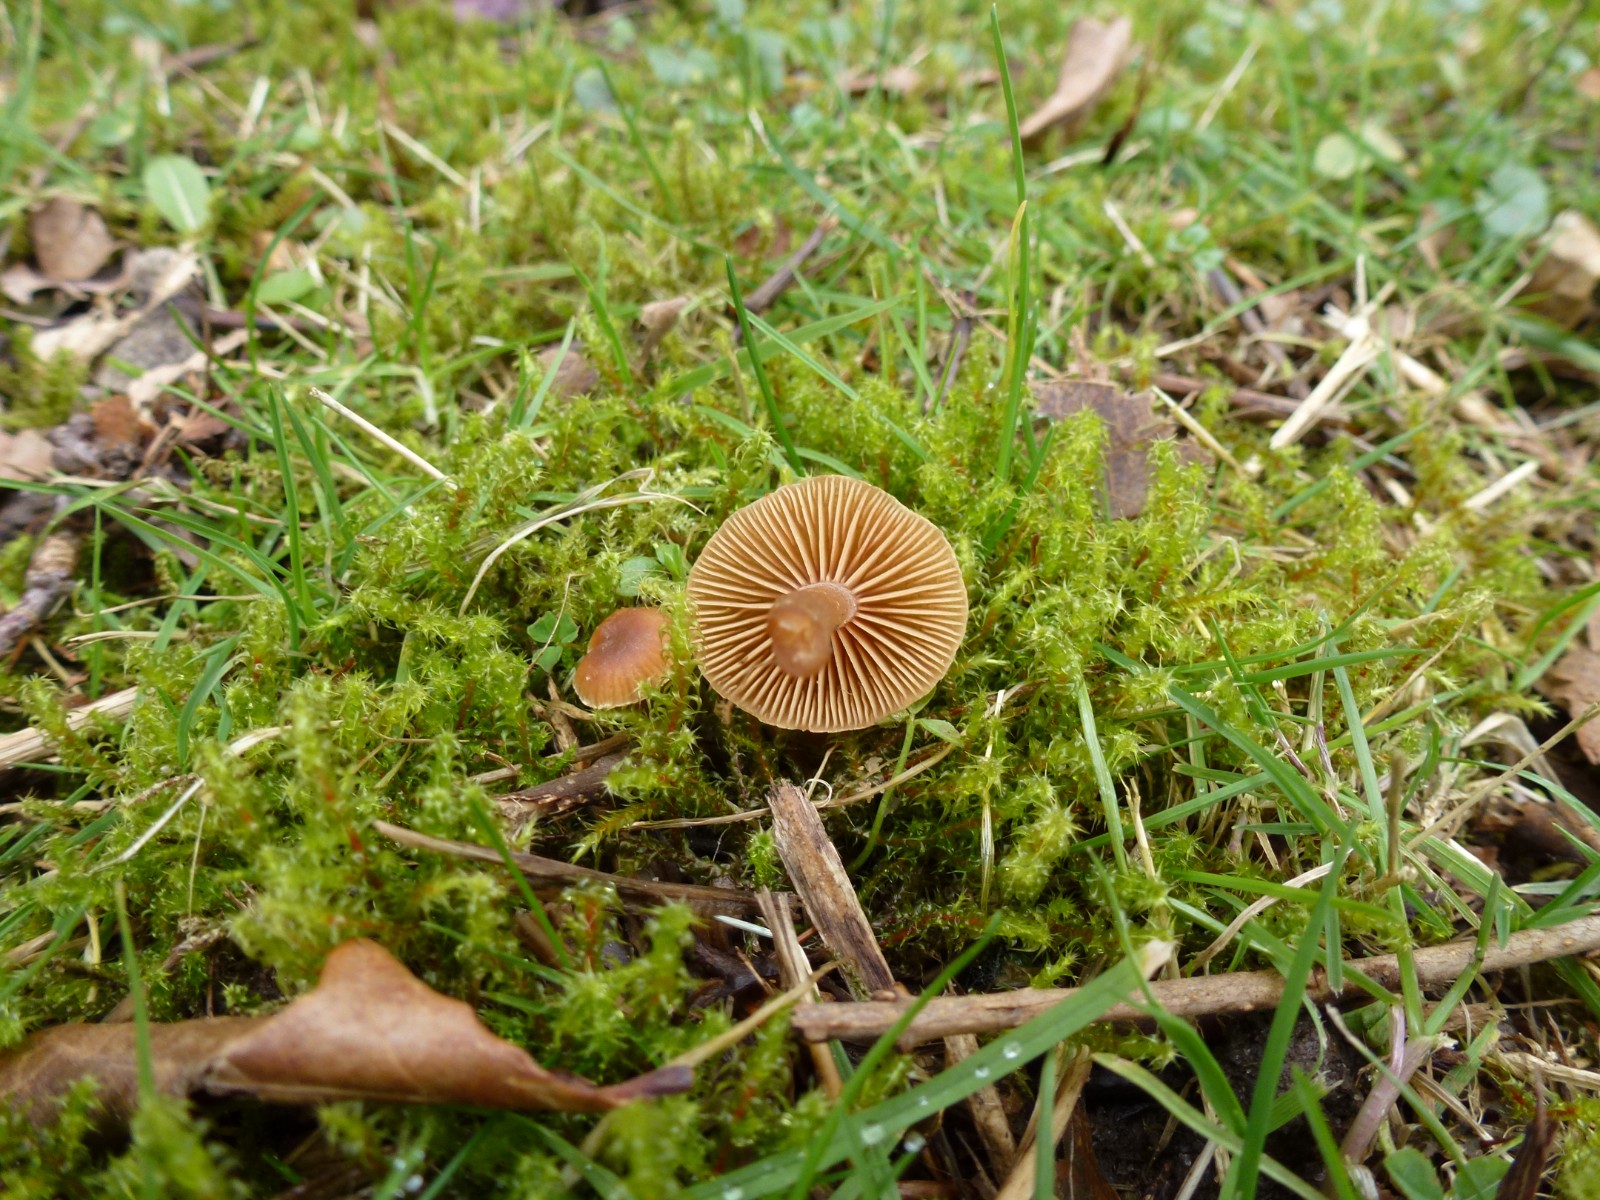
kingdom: Fungi
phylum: Basidiomycota
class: Agaricomycetes
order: Agaricales
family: Tubariaceae
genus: Tubaria
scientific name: Tubaria furfuracea
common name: kliddet fnughat
